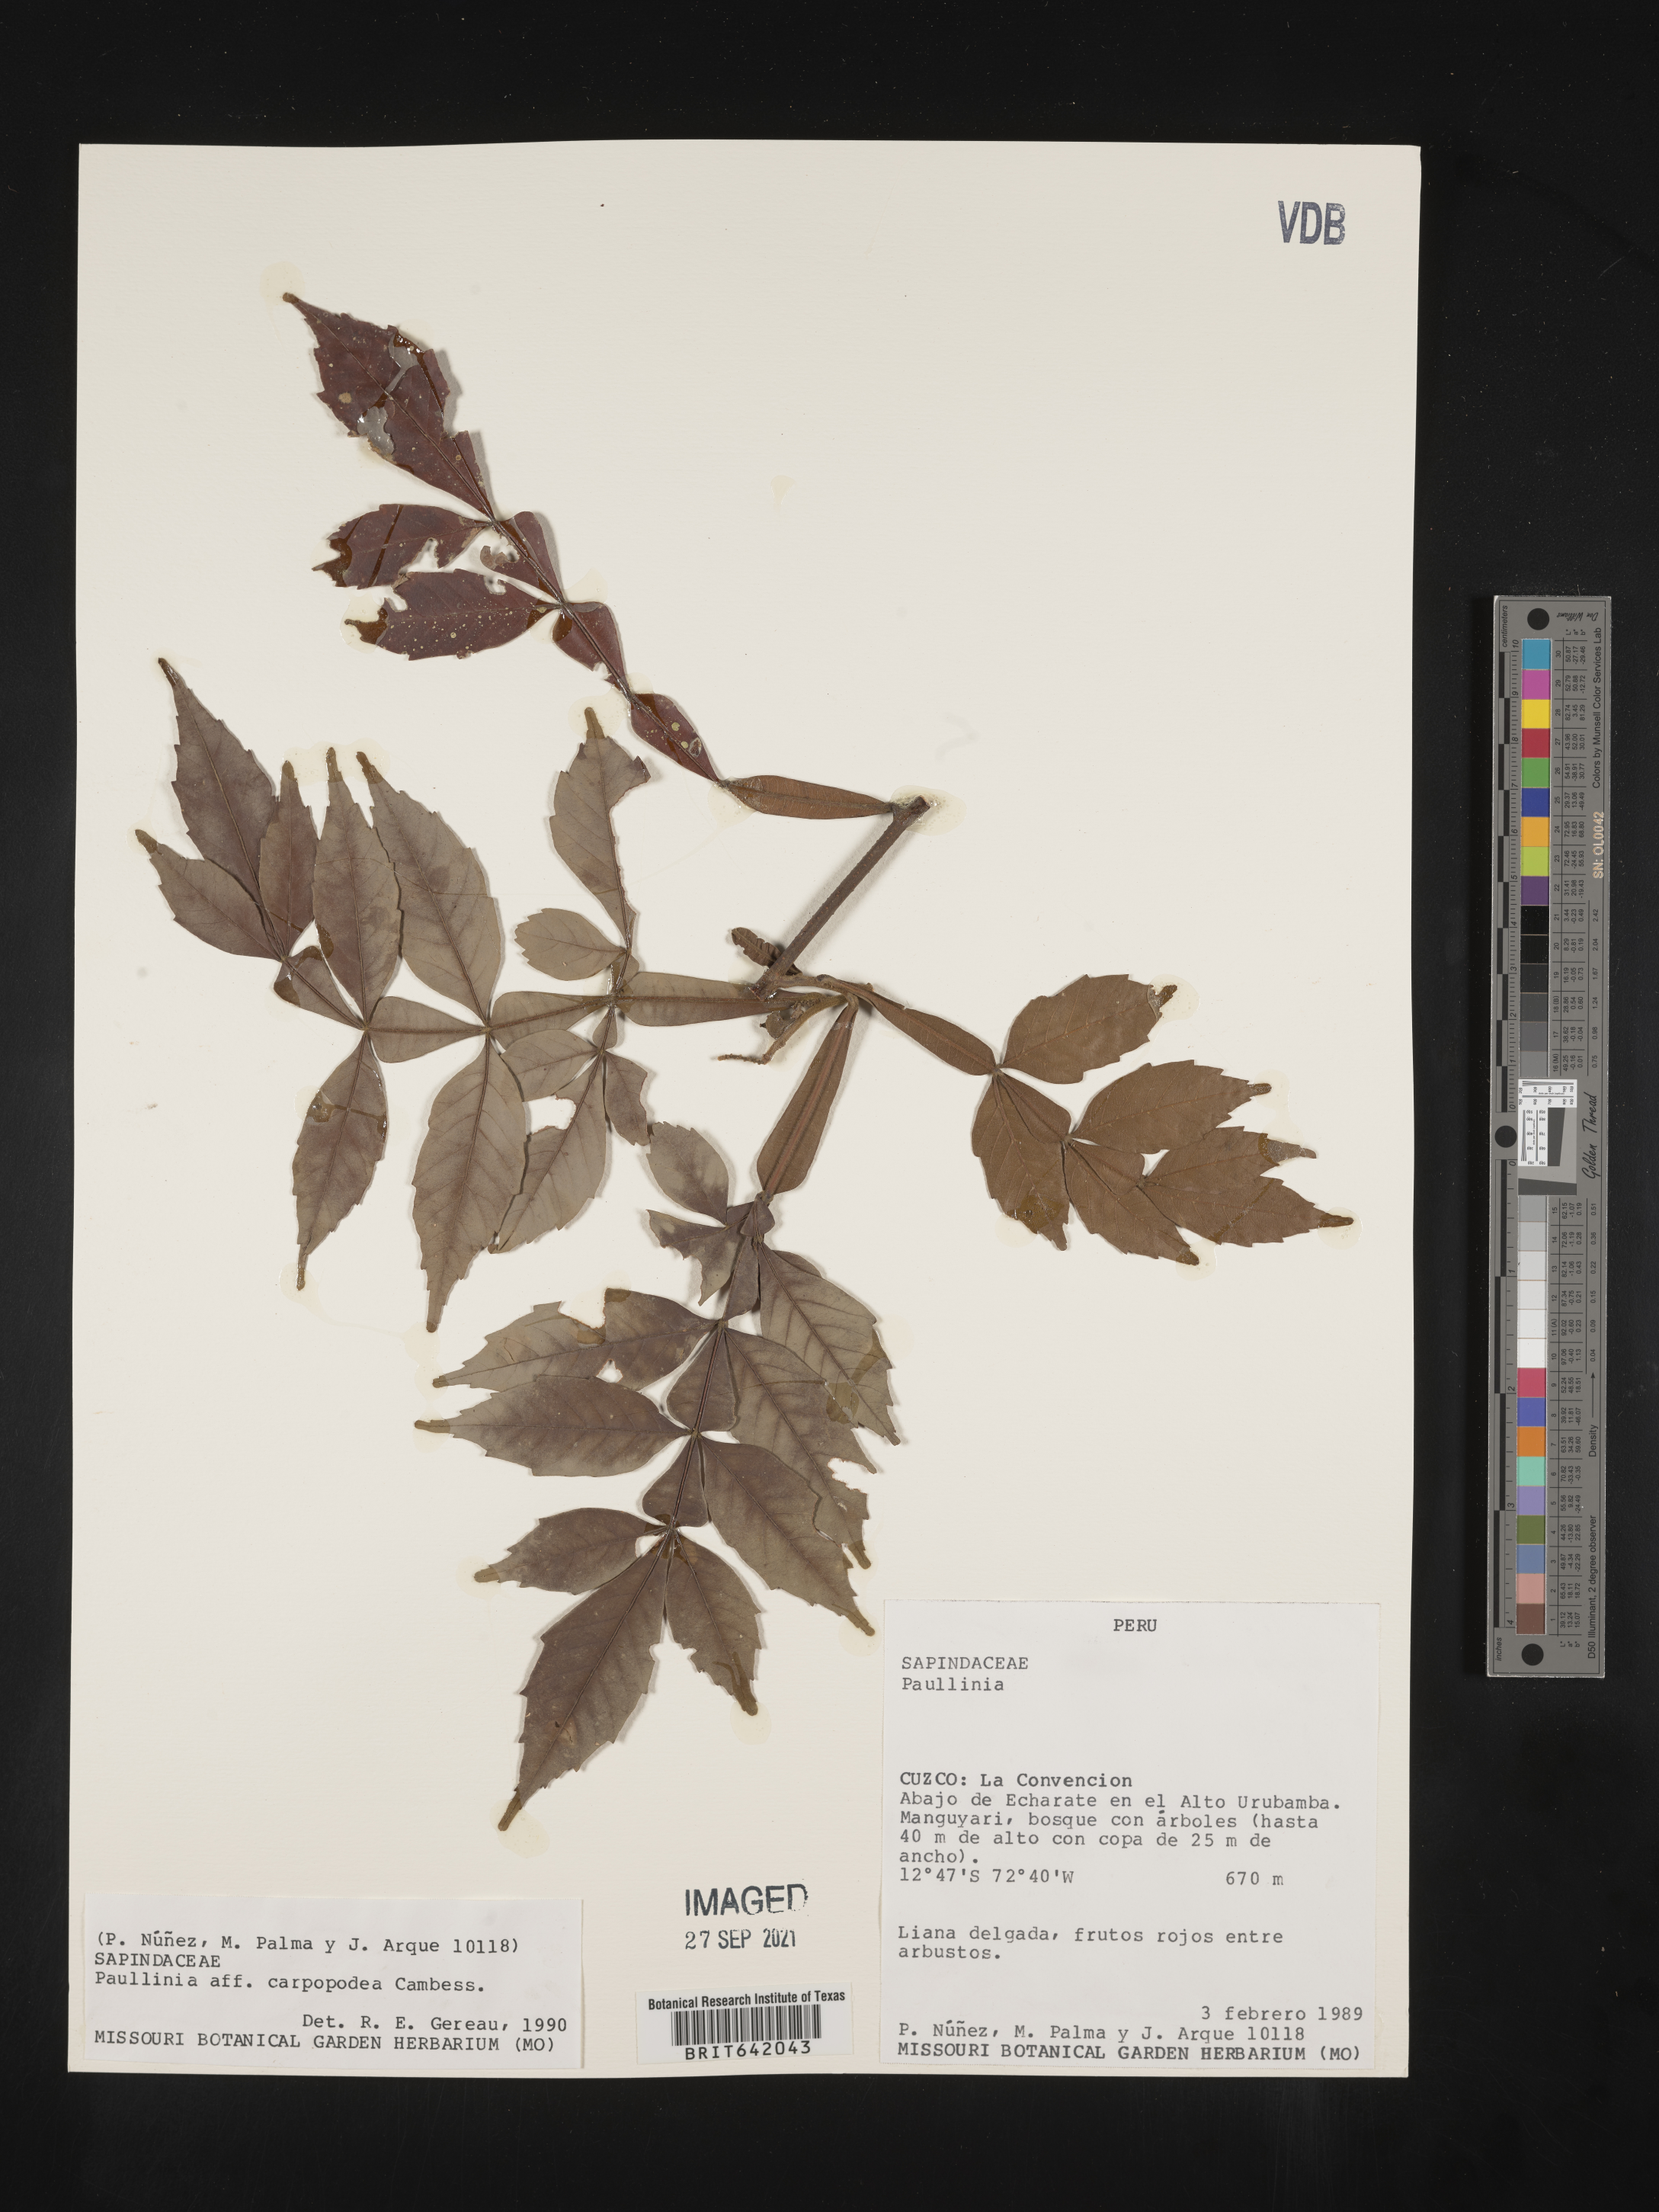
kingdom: Plantae
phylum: Tracheophyta
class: Magnoliopsida
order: Sapindales
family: Sapindaceae
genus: Paullinia
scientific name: Paullinia
